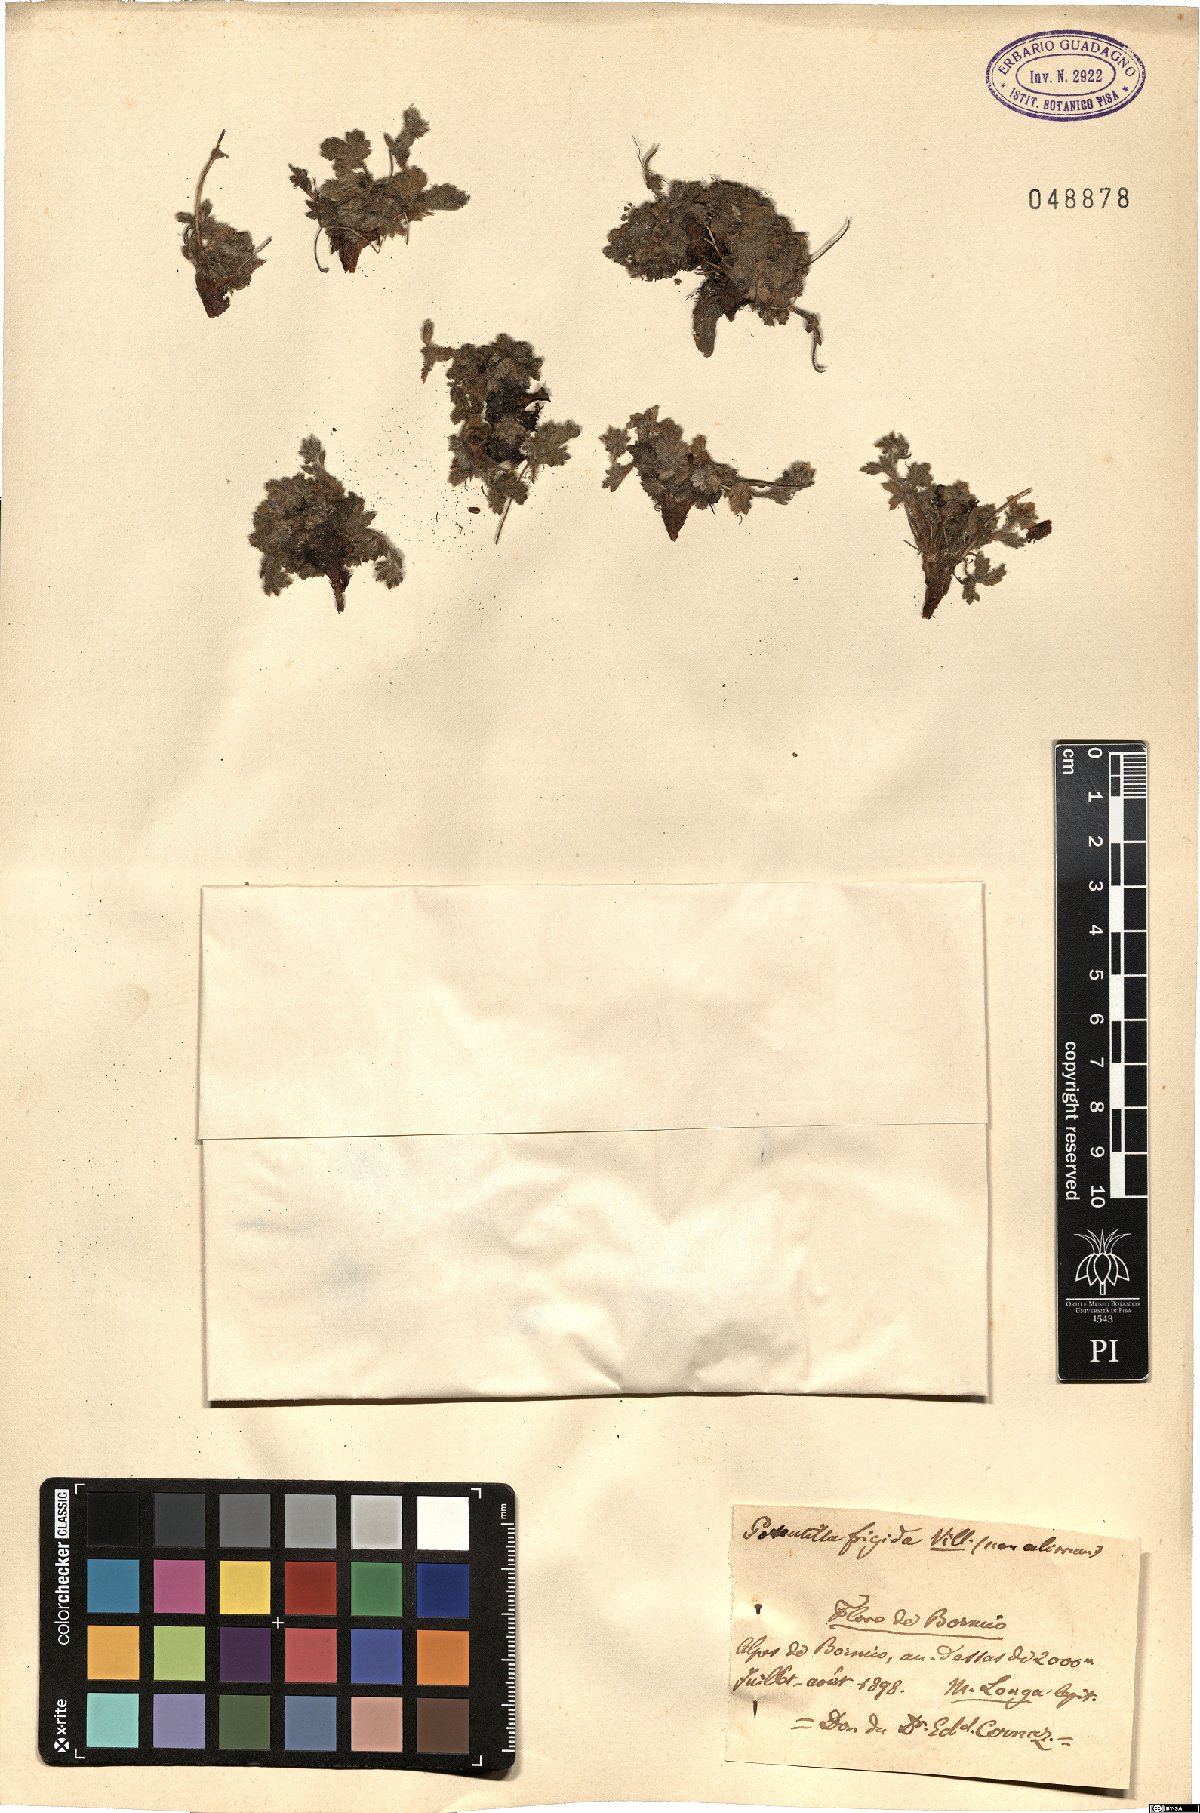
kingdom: Plantae
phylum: Tracheophyta
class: Magnoliopsida
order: Rosales
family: Rosaceae
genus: Potentilla
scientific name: Potentilla frigida
